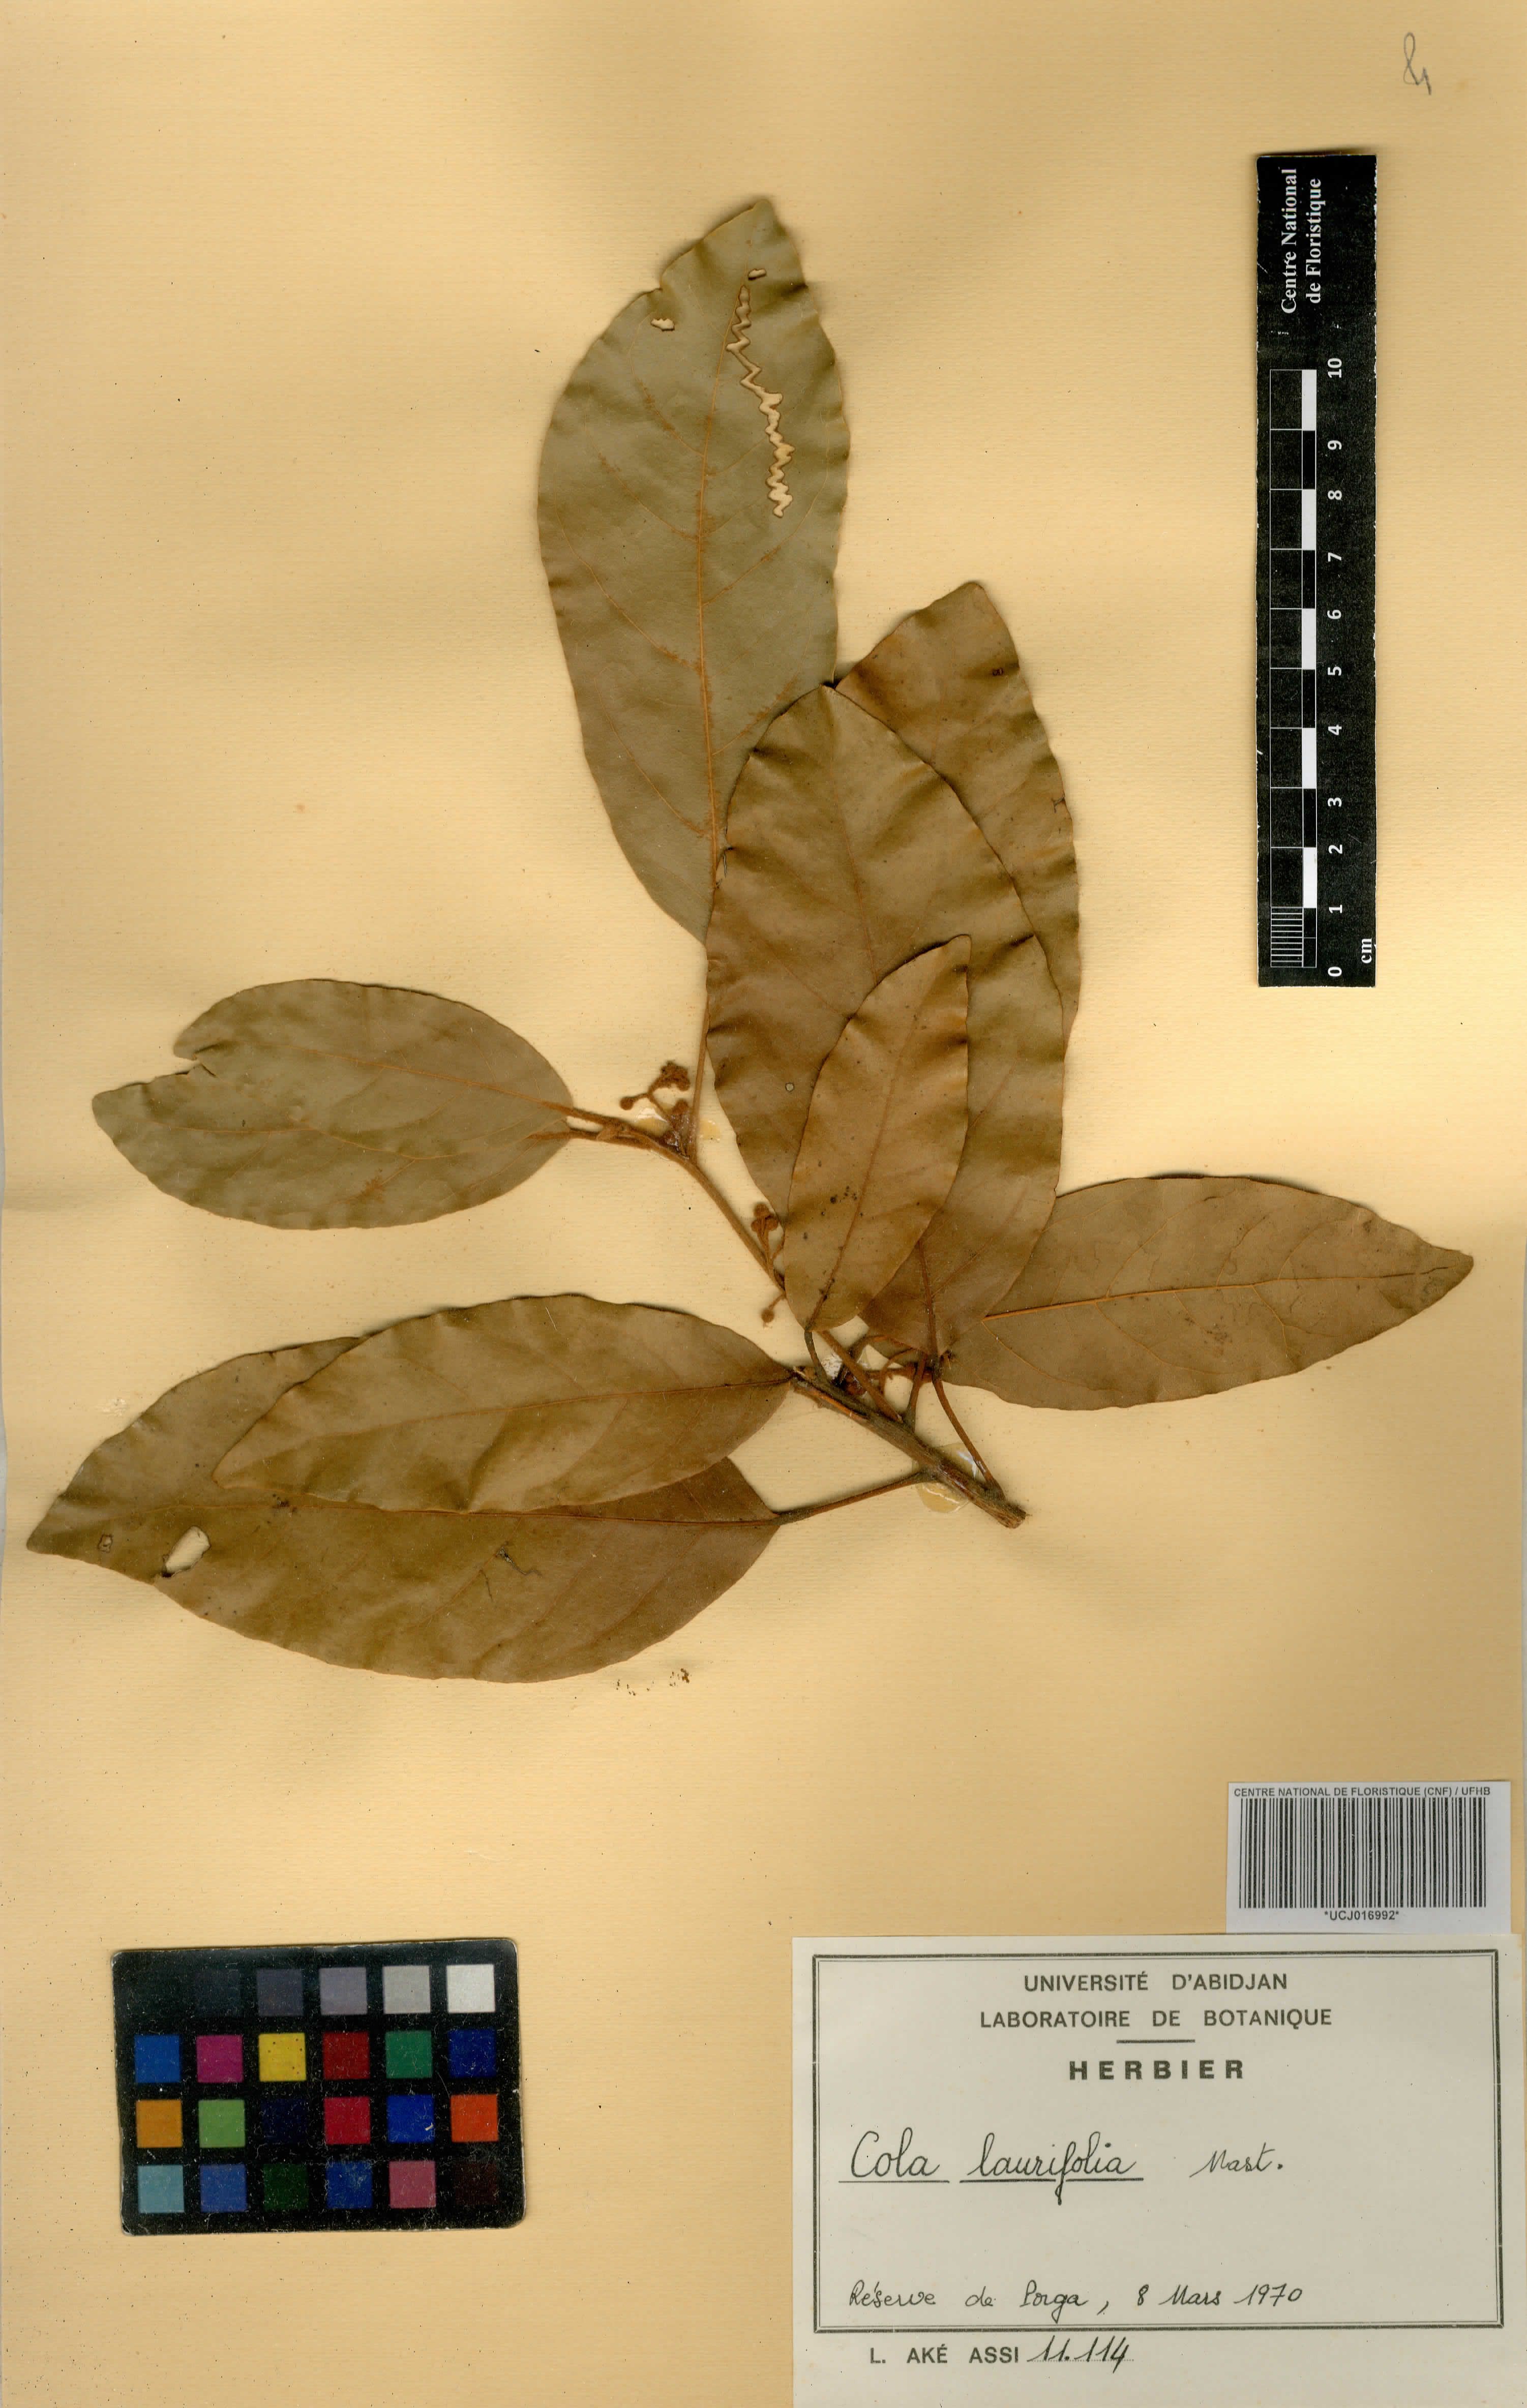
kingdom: Plantae
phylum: Tracheophyta
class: Magnoliopsida
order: Malvales
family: Malvaceae
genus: Cola
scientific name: Cola laurifolia
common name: Laurel-leaved kola
